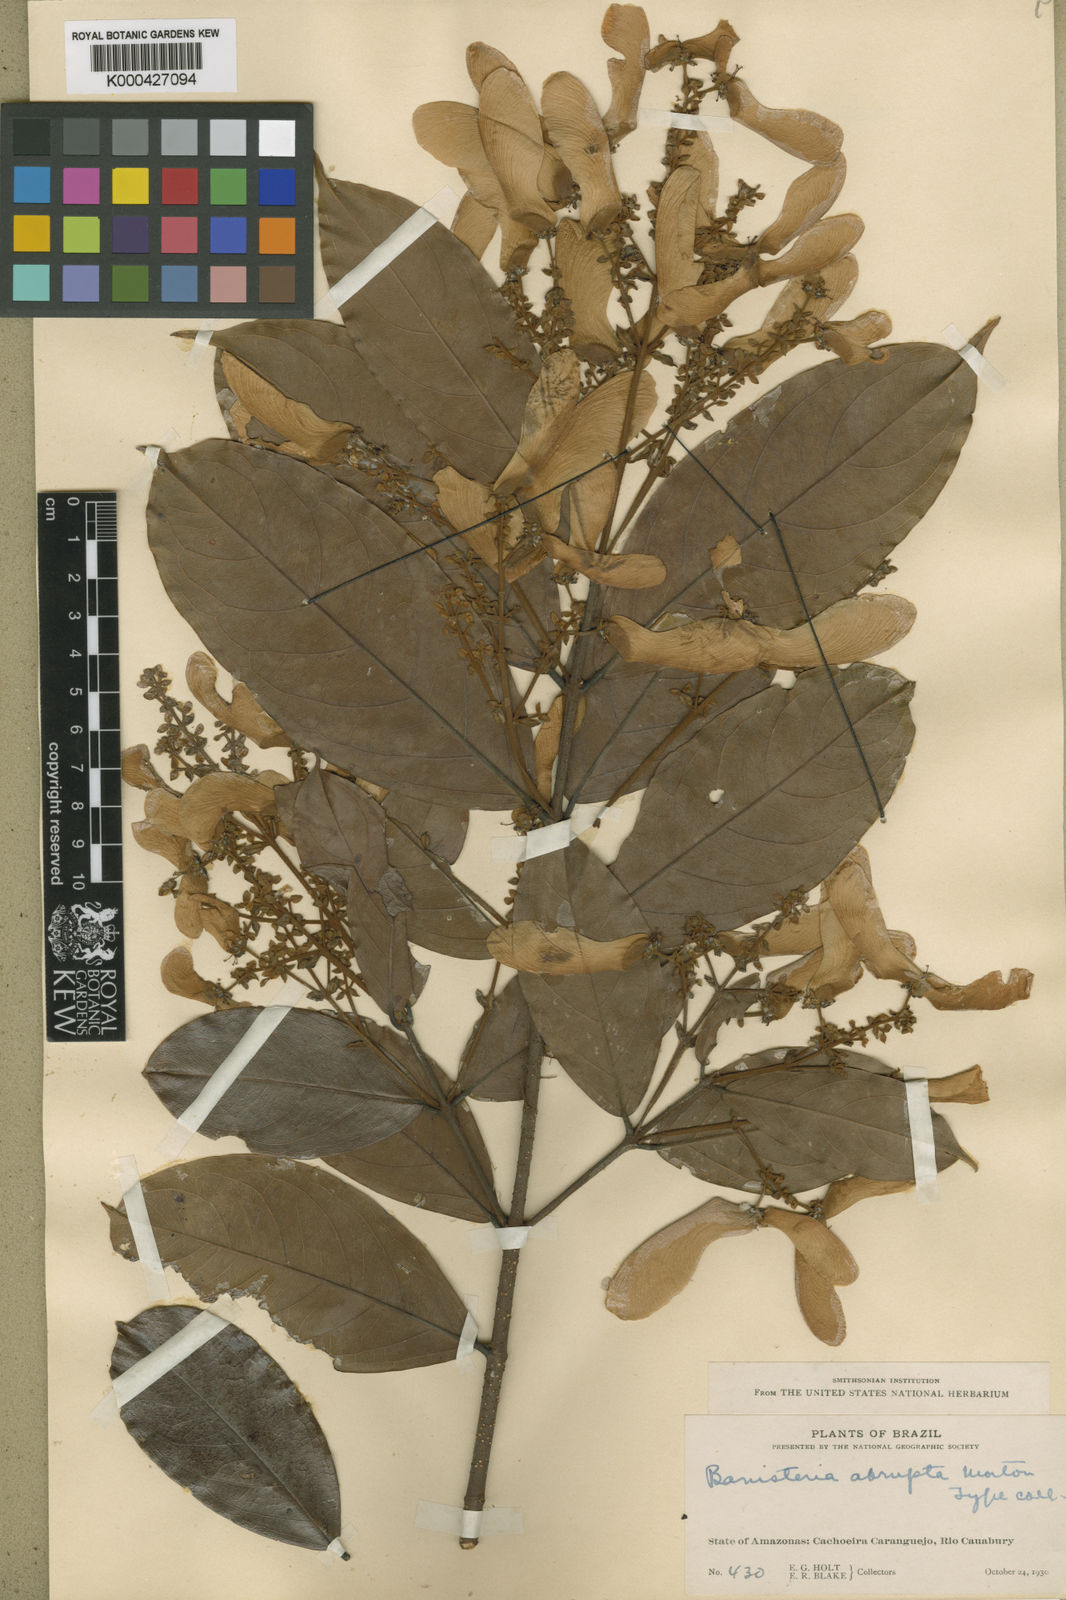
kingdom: Plantae
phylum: Tracheophyta
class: Magnoliopsida
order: Malpighiales
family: Malpighiaceae
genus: Heteropterys
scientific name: Heteropterys
